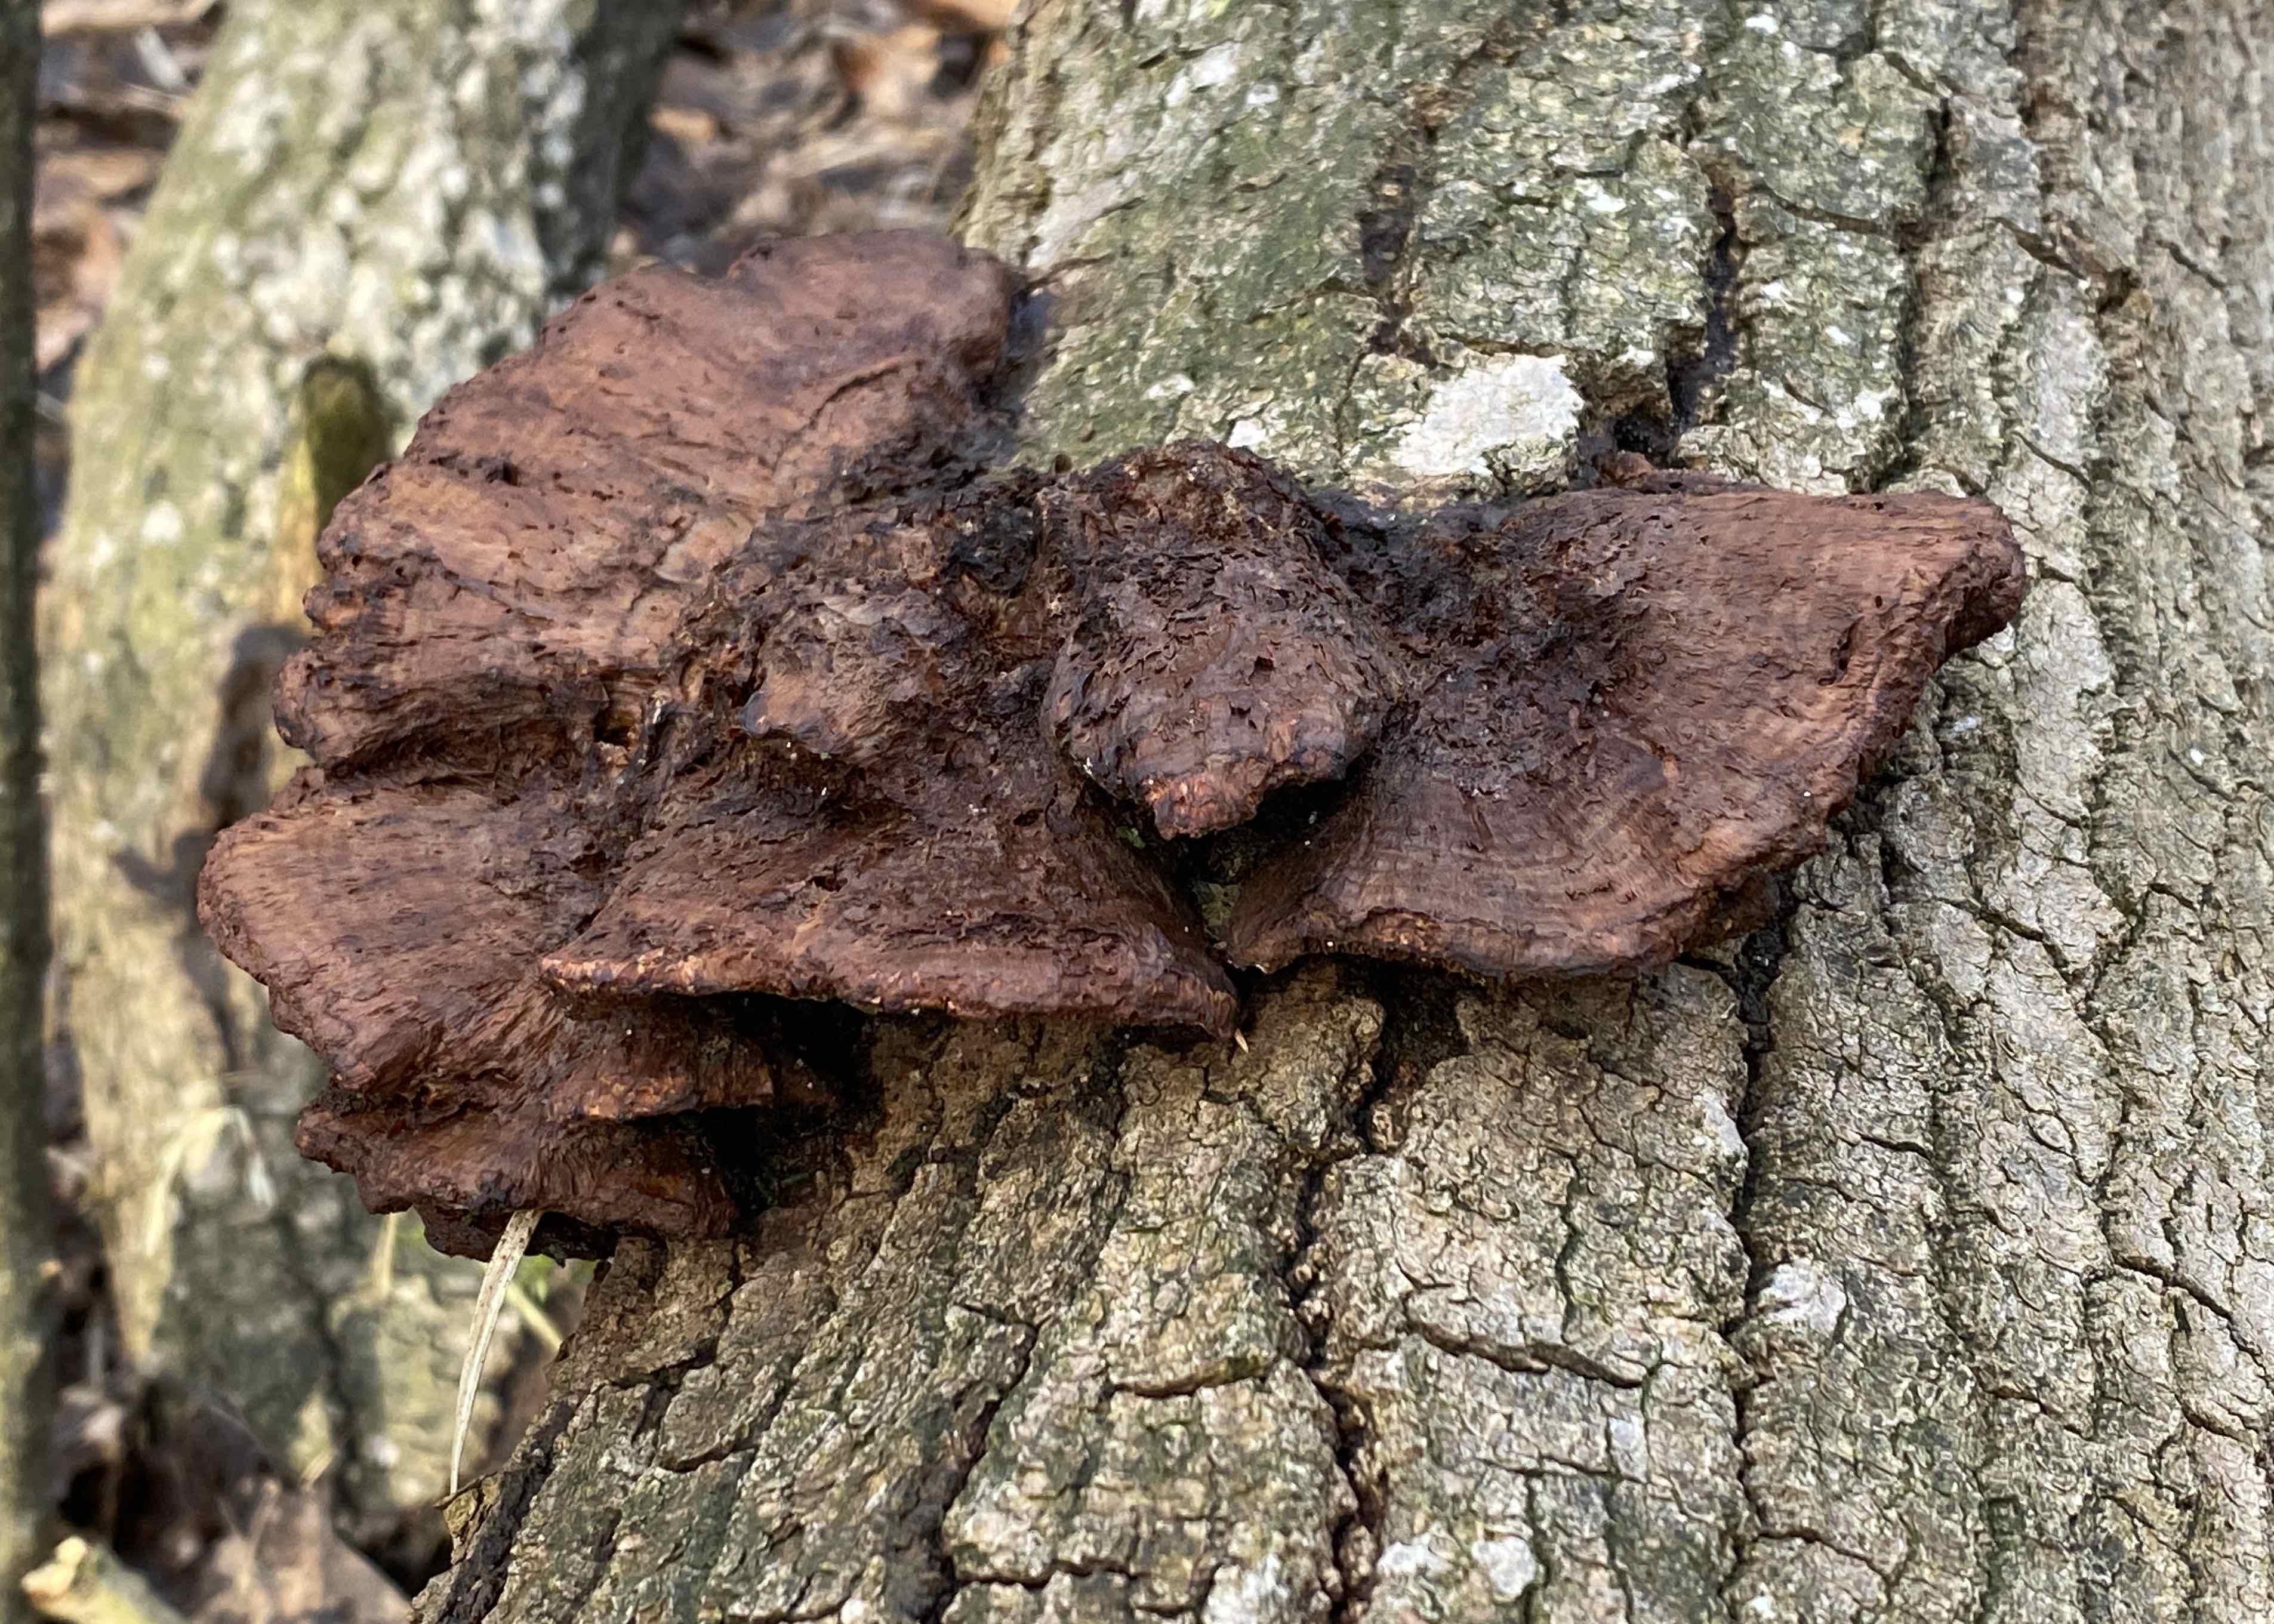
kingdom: Fungi
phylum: Basidiomycota
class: Agaricomycetes
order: Polyporales
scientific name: Polyporales
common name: poresvampordenen
